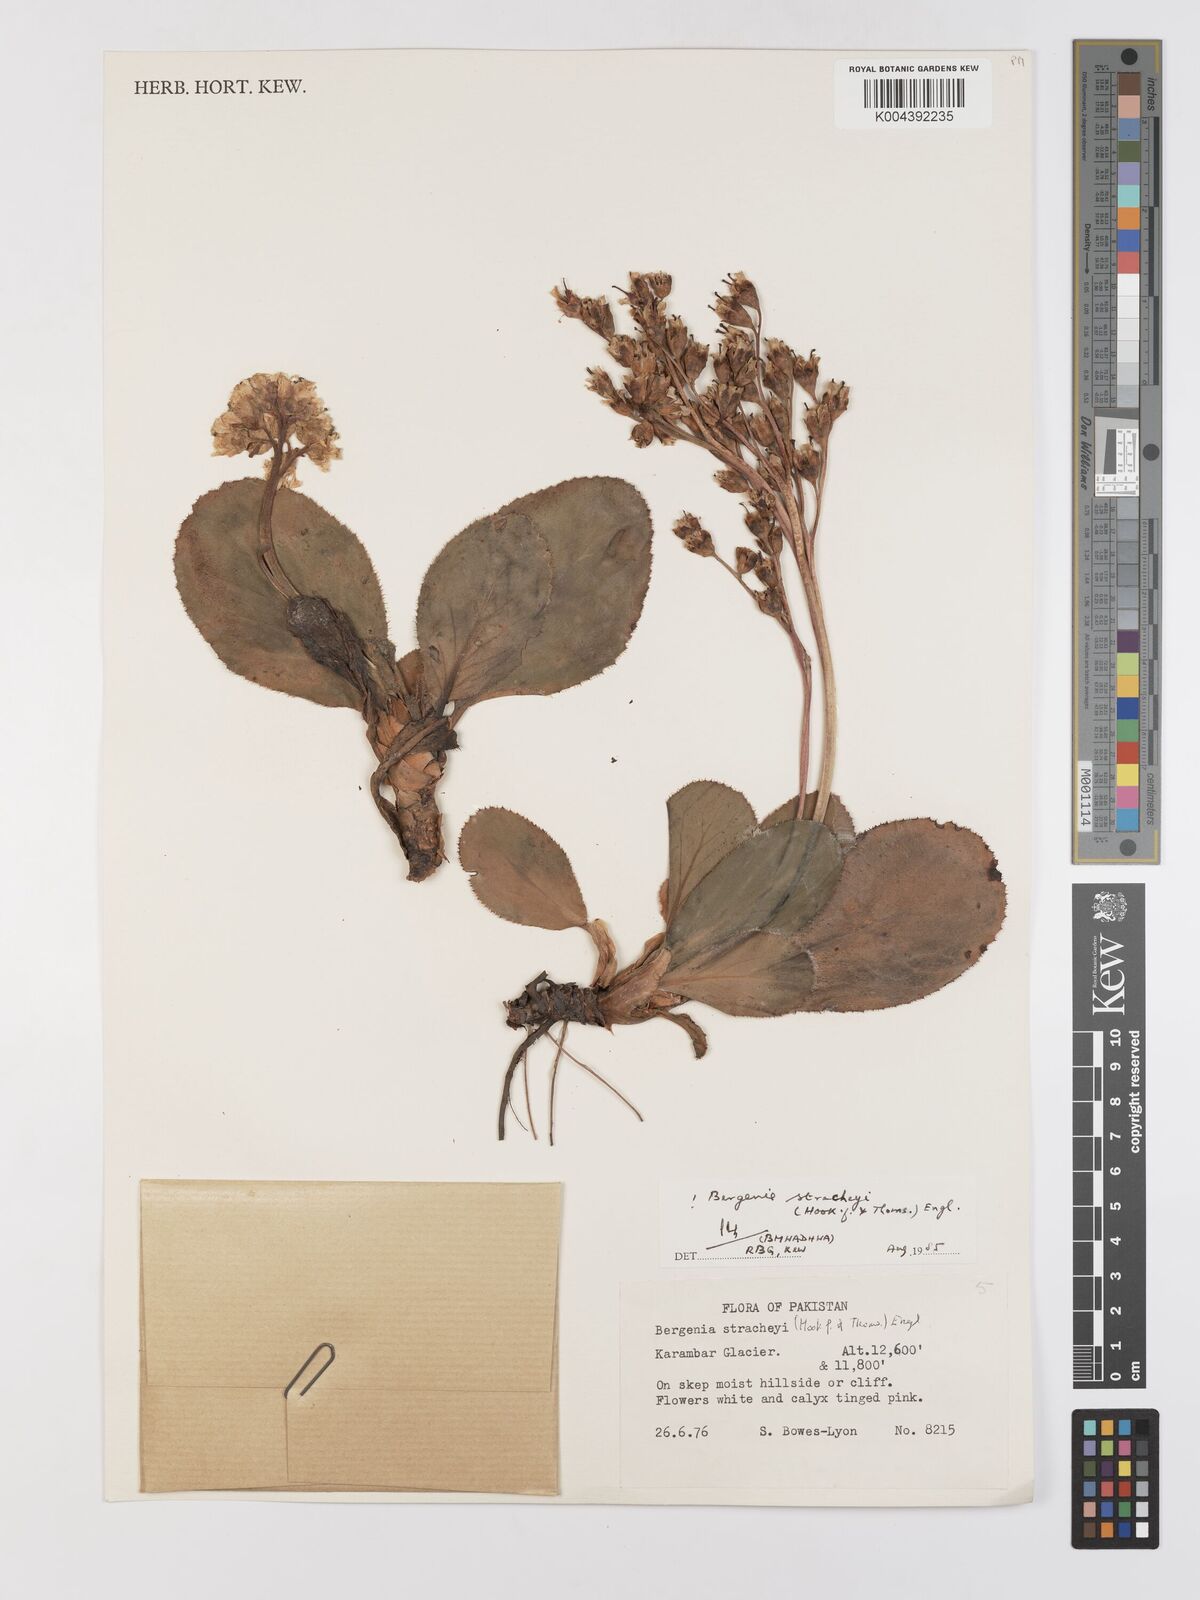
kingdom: Plantae
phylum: Tracheophyta
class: Magnoliopsida
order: Saxifragales
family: Saxifragaceae
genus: Bergenia
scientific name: Bergenia stracheyi
